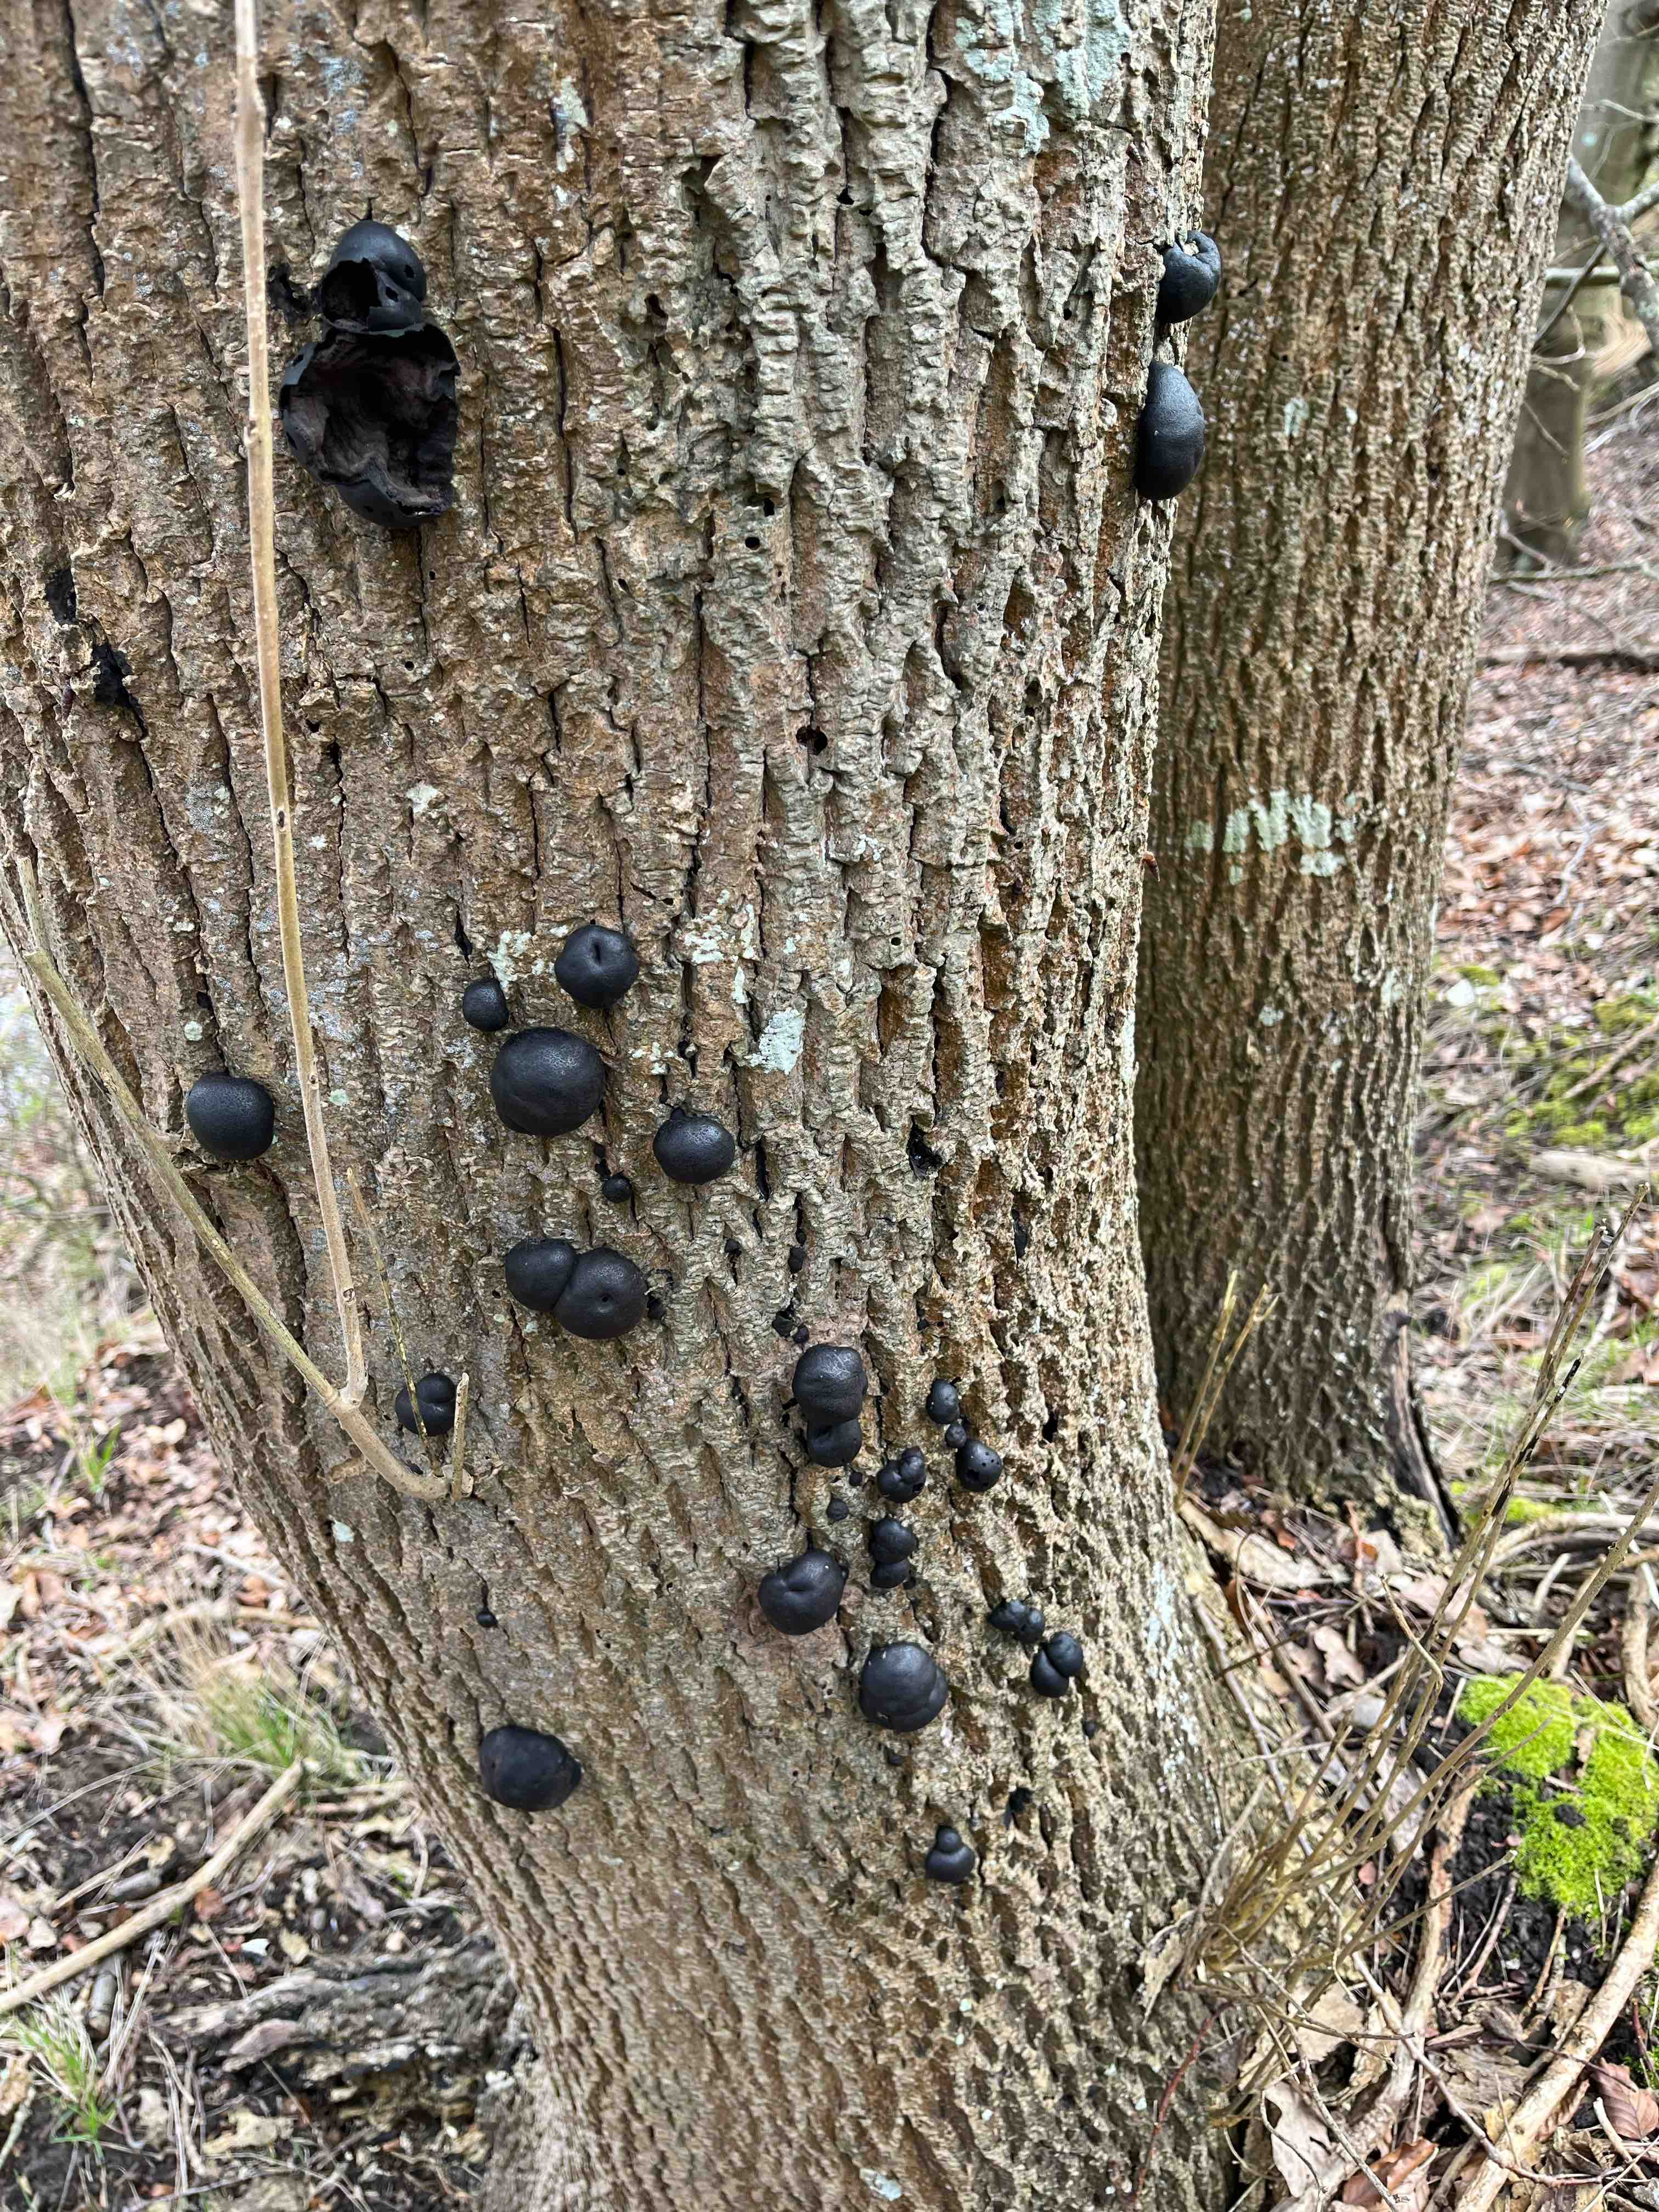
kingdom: Fungi
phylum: Ascomycota
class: Sordariomycetes
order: Xylariales
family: Hypoxylaceae
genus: Daldinia
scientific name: Daldinia concentrica
